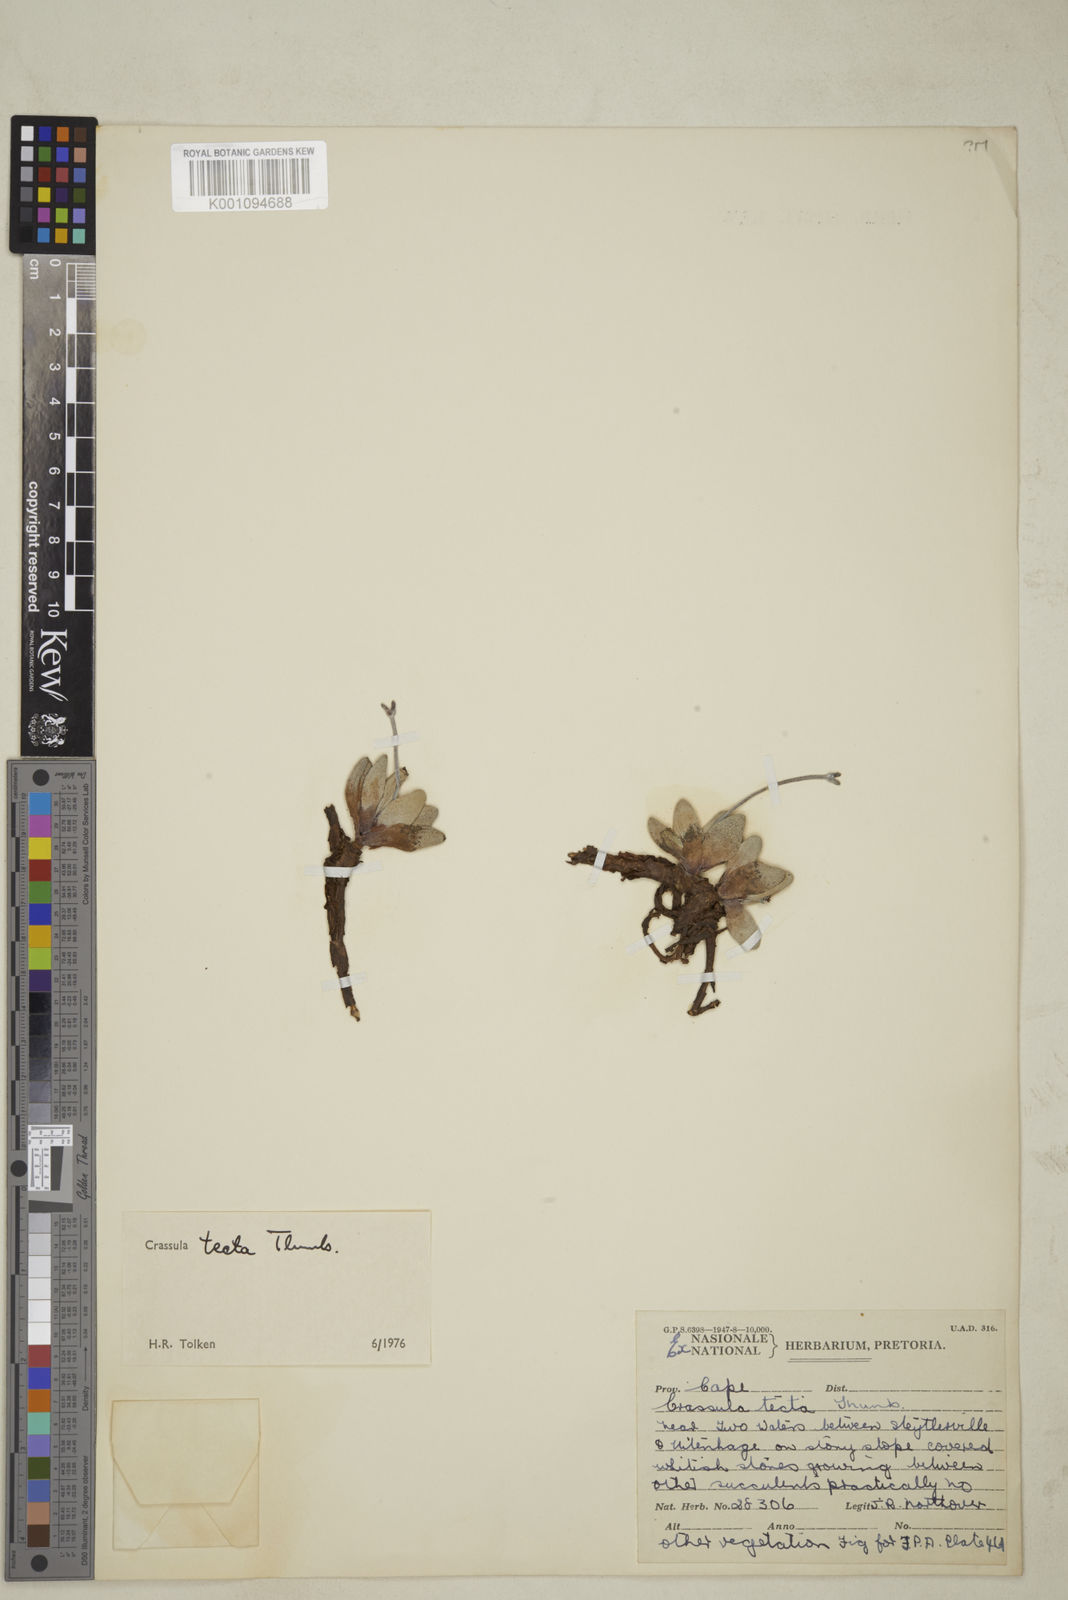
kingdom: Plantae
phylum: Tracheophyta
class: Magnoliopsida
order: Saxifragales
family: Crassulaceae
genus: Crassula
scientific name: Crassula tecta
